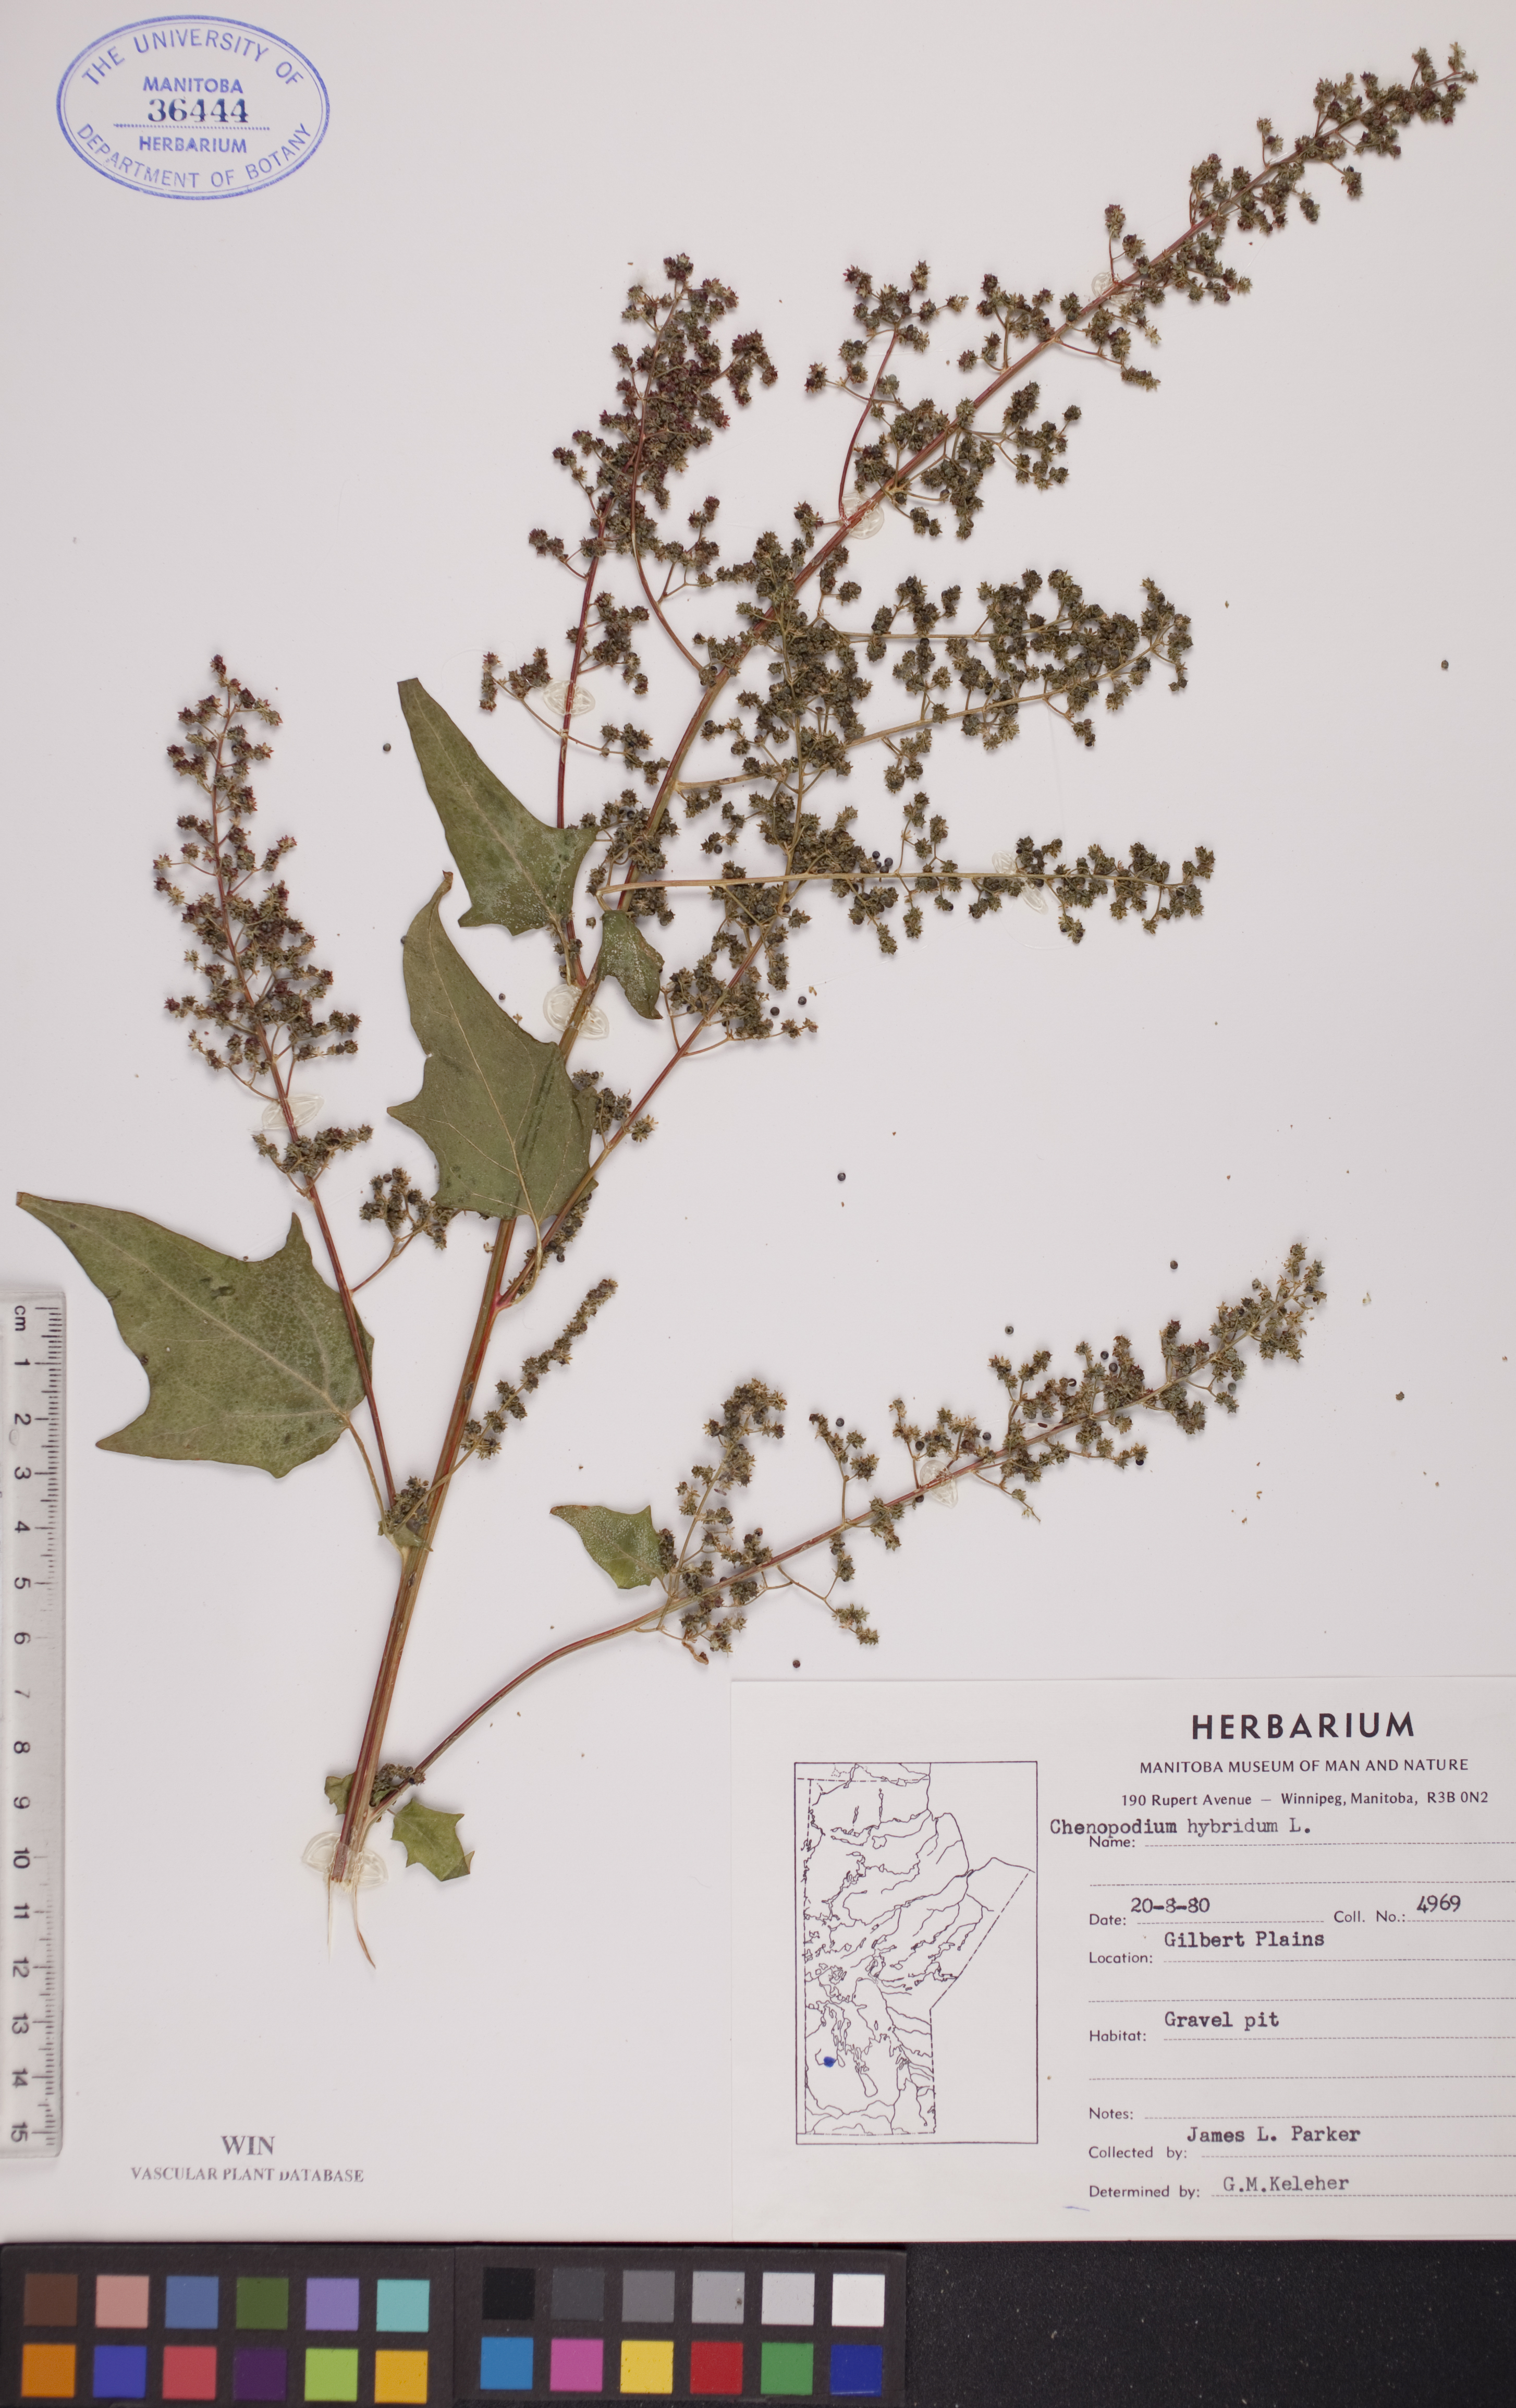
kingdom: Plantae
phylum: Tracheophyta
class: Magnoliopsida
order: Caryophyllales
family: Amaranthaceae
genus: Chenopodiastrum
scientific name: Chenopodiastrum hybridum
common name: Mapleleaf goosefoot
